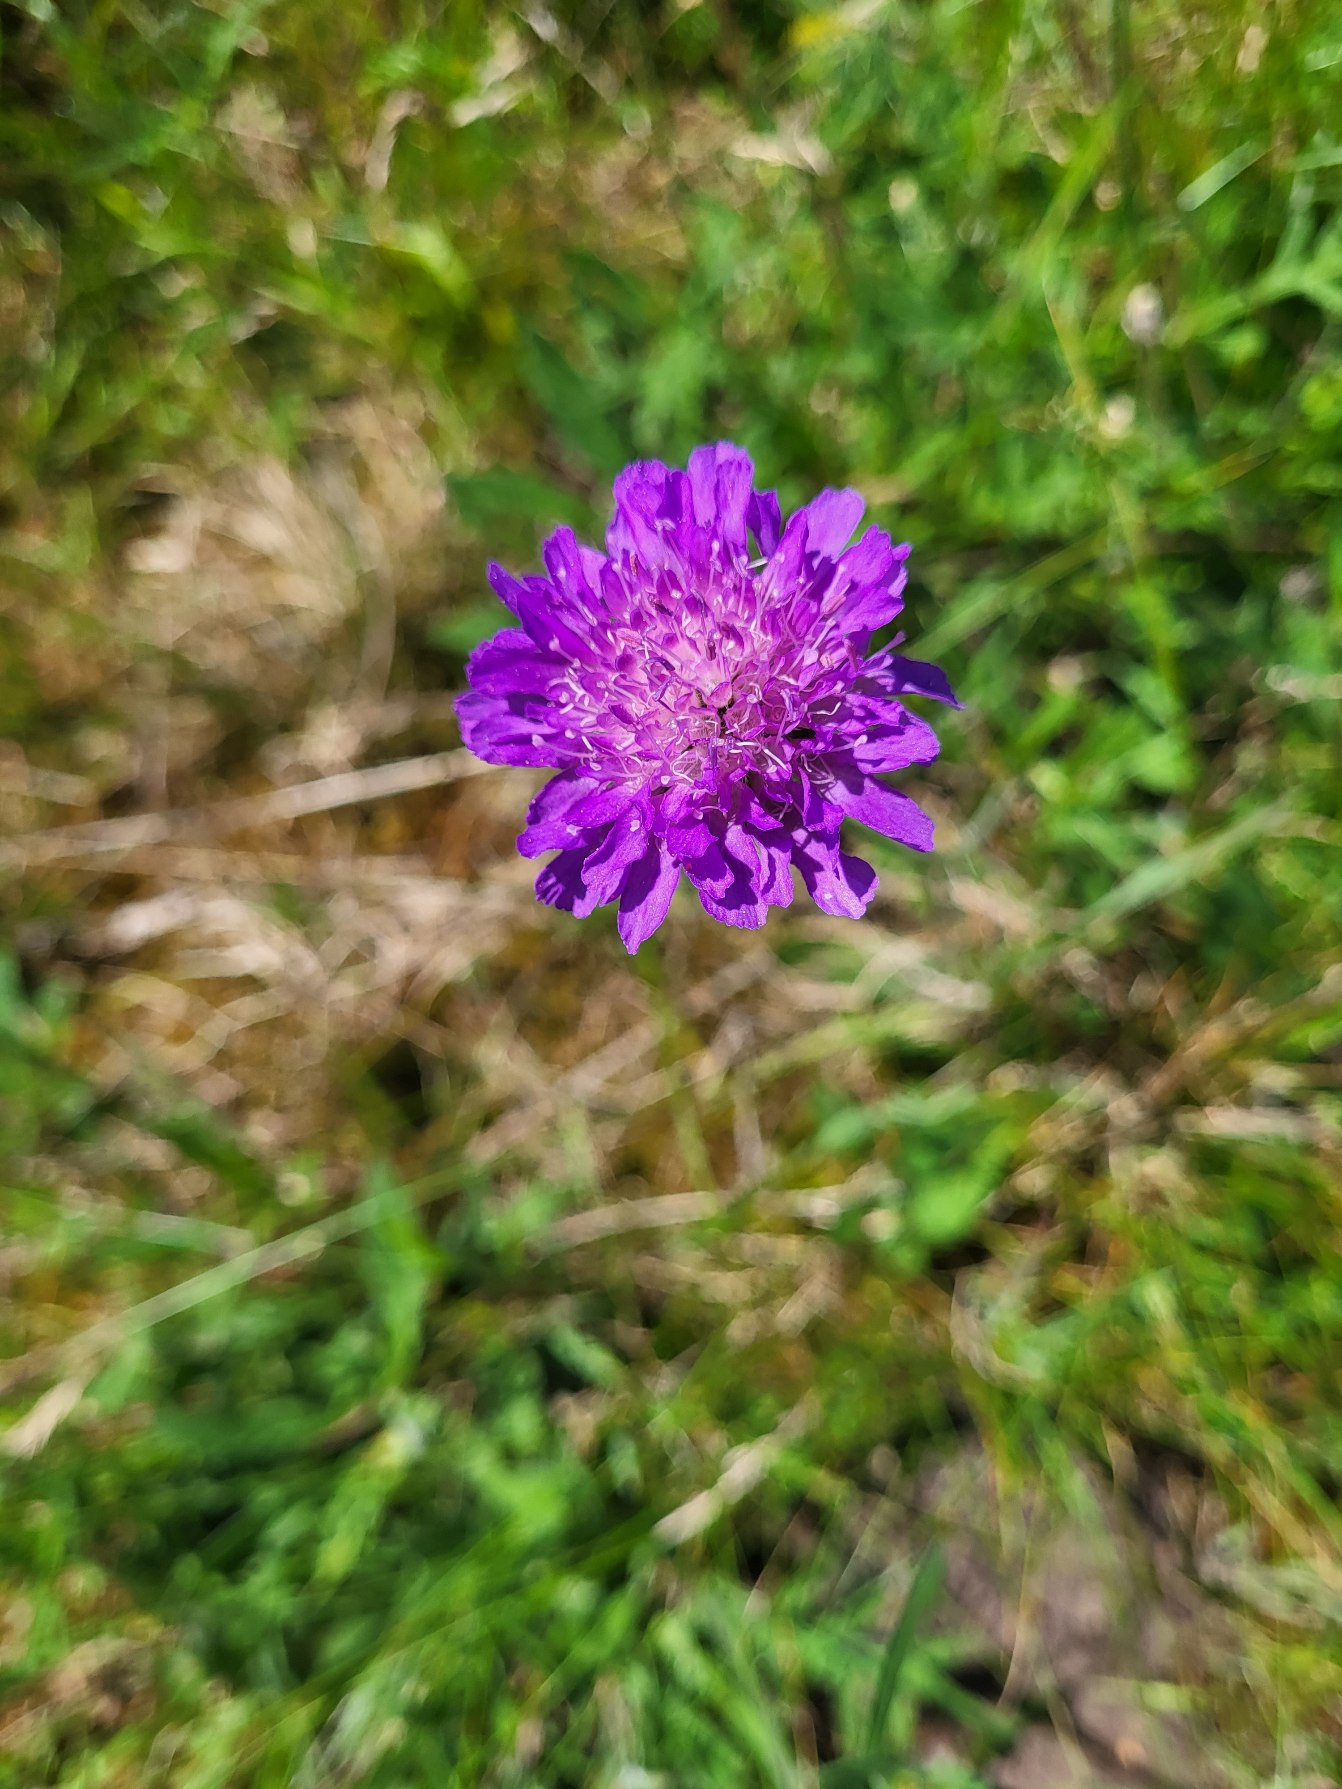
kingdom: Plantae
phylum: Tracheophyta
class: Magnoliopsida
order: Dipsacales
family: Caprifoliaceae
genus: Knautia
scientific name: Knautia arvensis
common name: Blåhat
